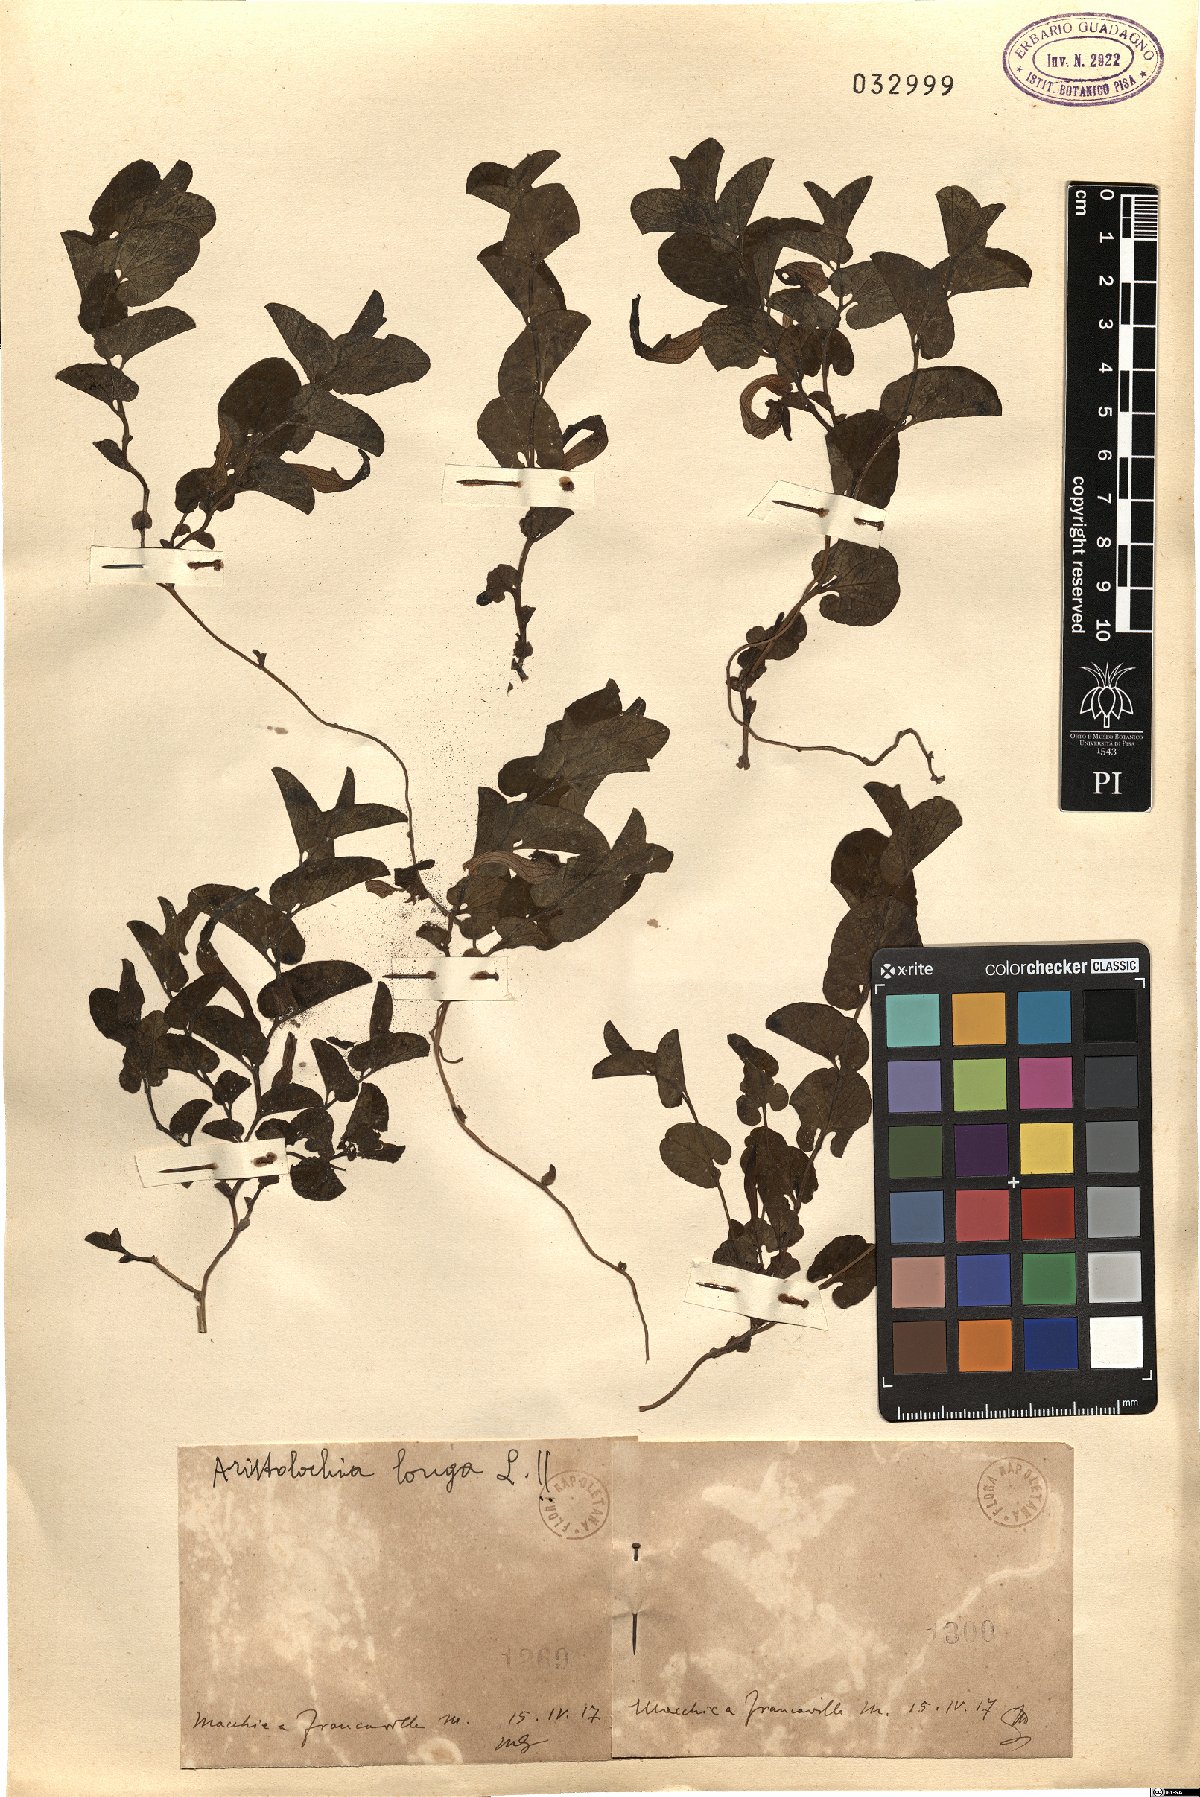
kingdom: Plantae
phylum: Tracheophyta
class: Magnoliopsida
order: Piperales
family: Aristolochiaceae
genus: Aristolochia
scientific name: Aristolochia fontanesii
